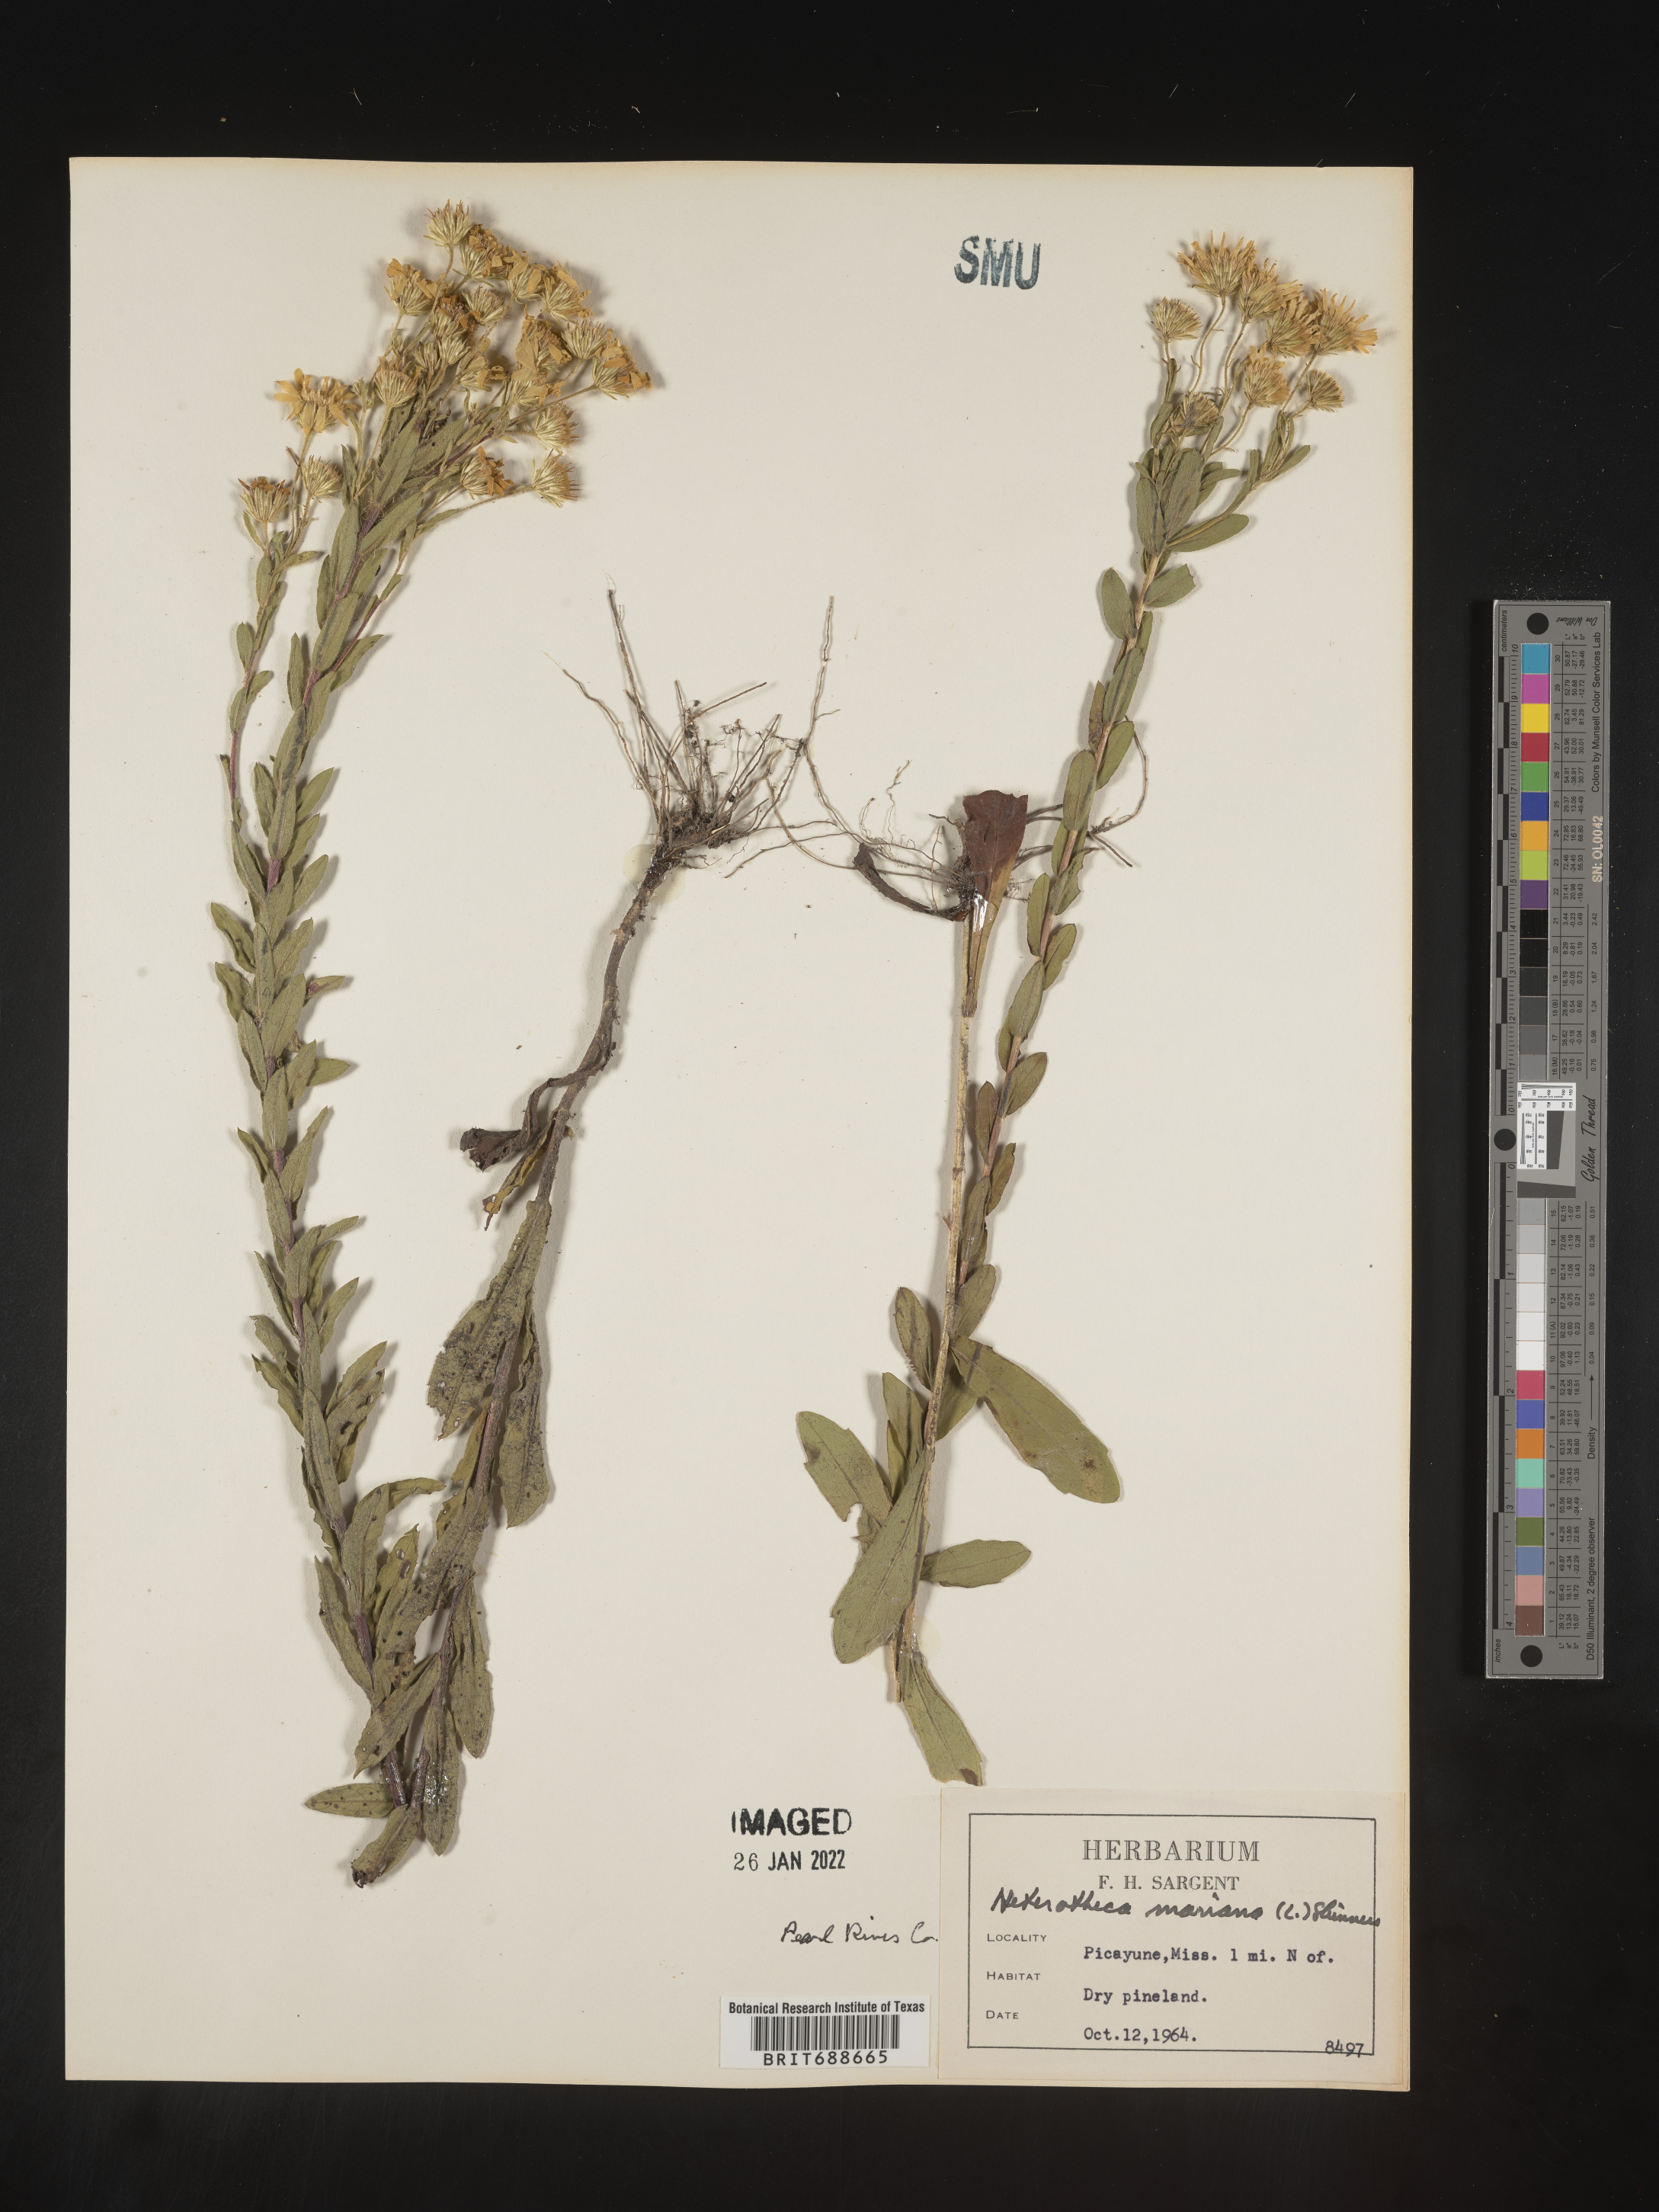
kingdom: Plantae
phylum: Tracheophyta
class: Magnoliopsida
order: Asterales
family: Asteraceae
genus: Chrysopsis
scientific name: Chrysopsis mariana
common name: Maryland golden-aster
